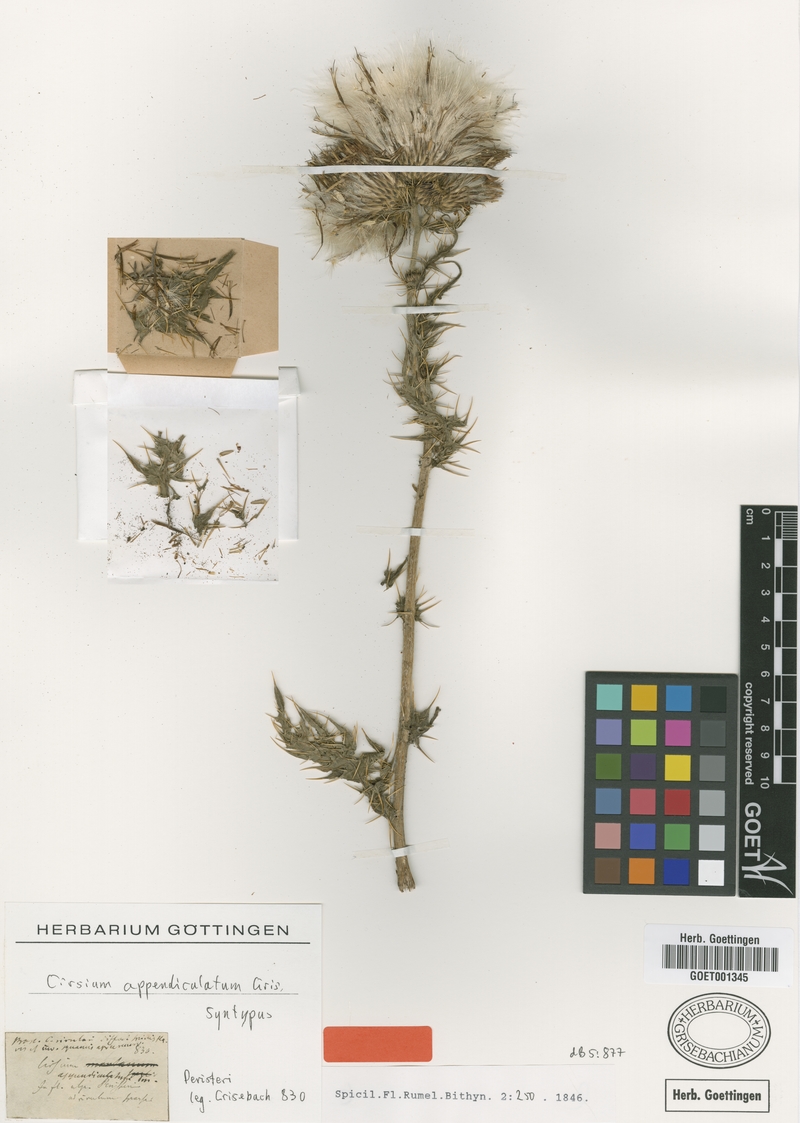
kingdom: Plantae
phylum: Tracheophyta
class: Magnoliopsida
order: Asterales
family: Asteraceae
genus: Cirsium
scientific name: Cirsium appendiculatum
